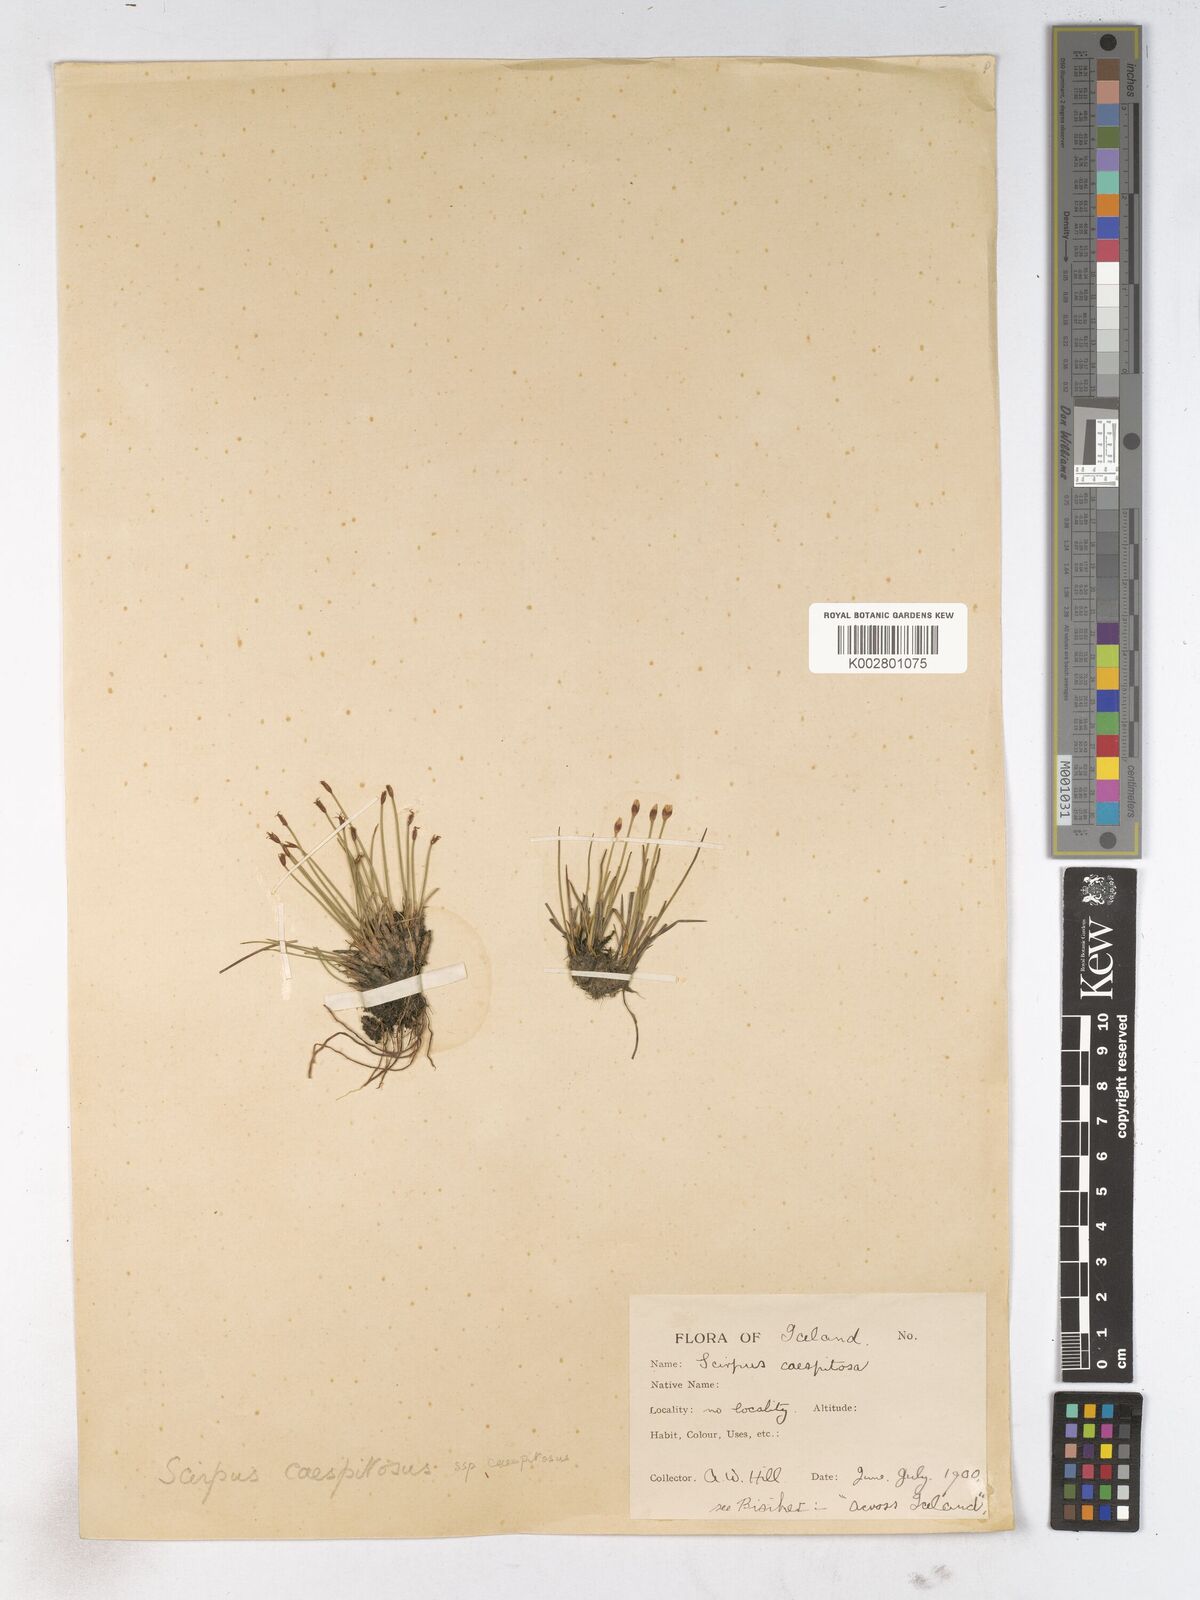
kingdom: Plantae
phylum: Tracheophyta
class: Liliopsida
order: Poales
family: Cyperaceae
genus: Trichophorum
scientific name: Trichophorum cespitosum
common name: Cespitose bulrush
